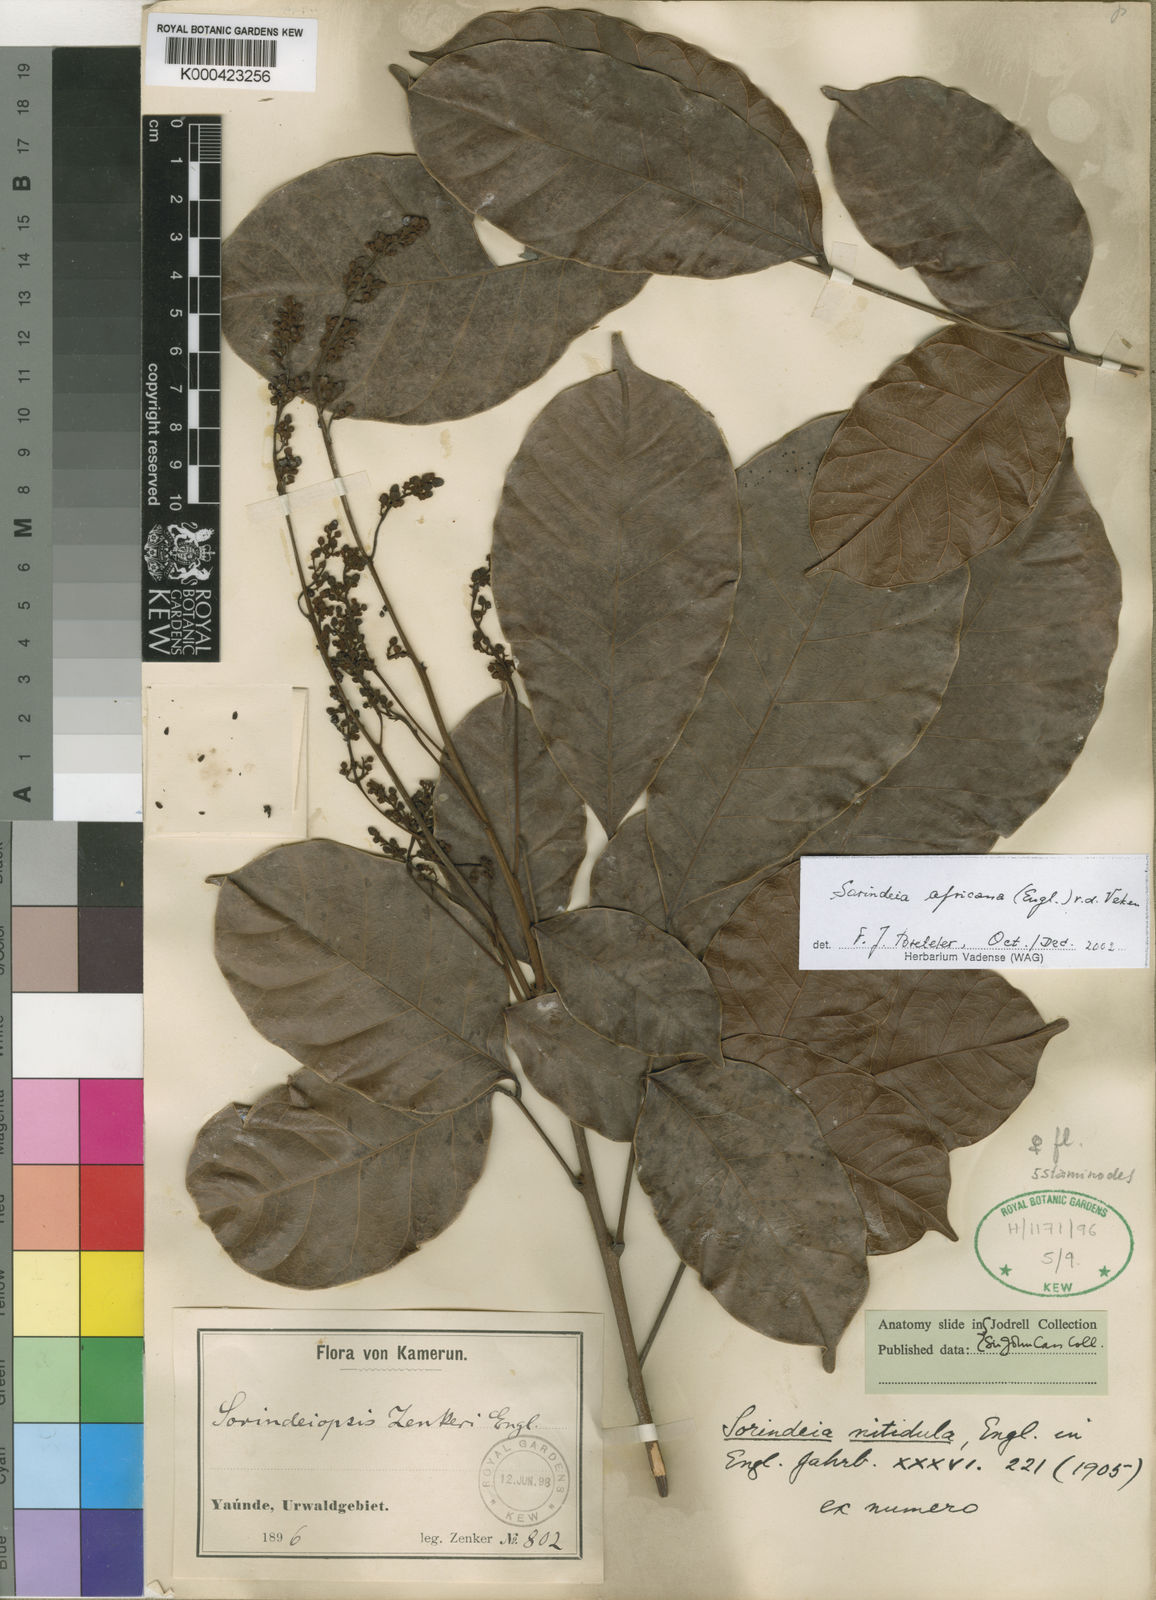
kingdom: Plantae
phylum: Tracheophyta
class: Magnoliopsida
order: Sapindales
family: Anacardiaceae
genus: Sorindeia
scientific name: Sorindeia africana
